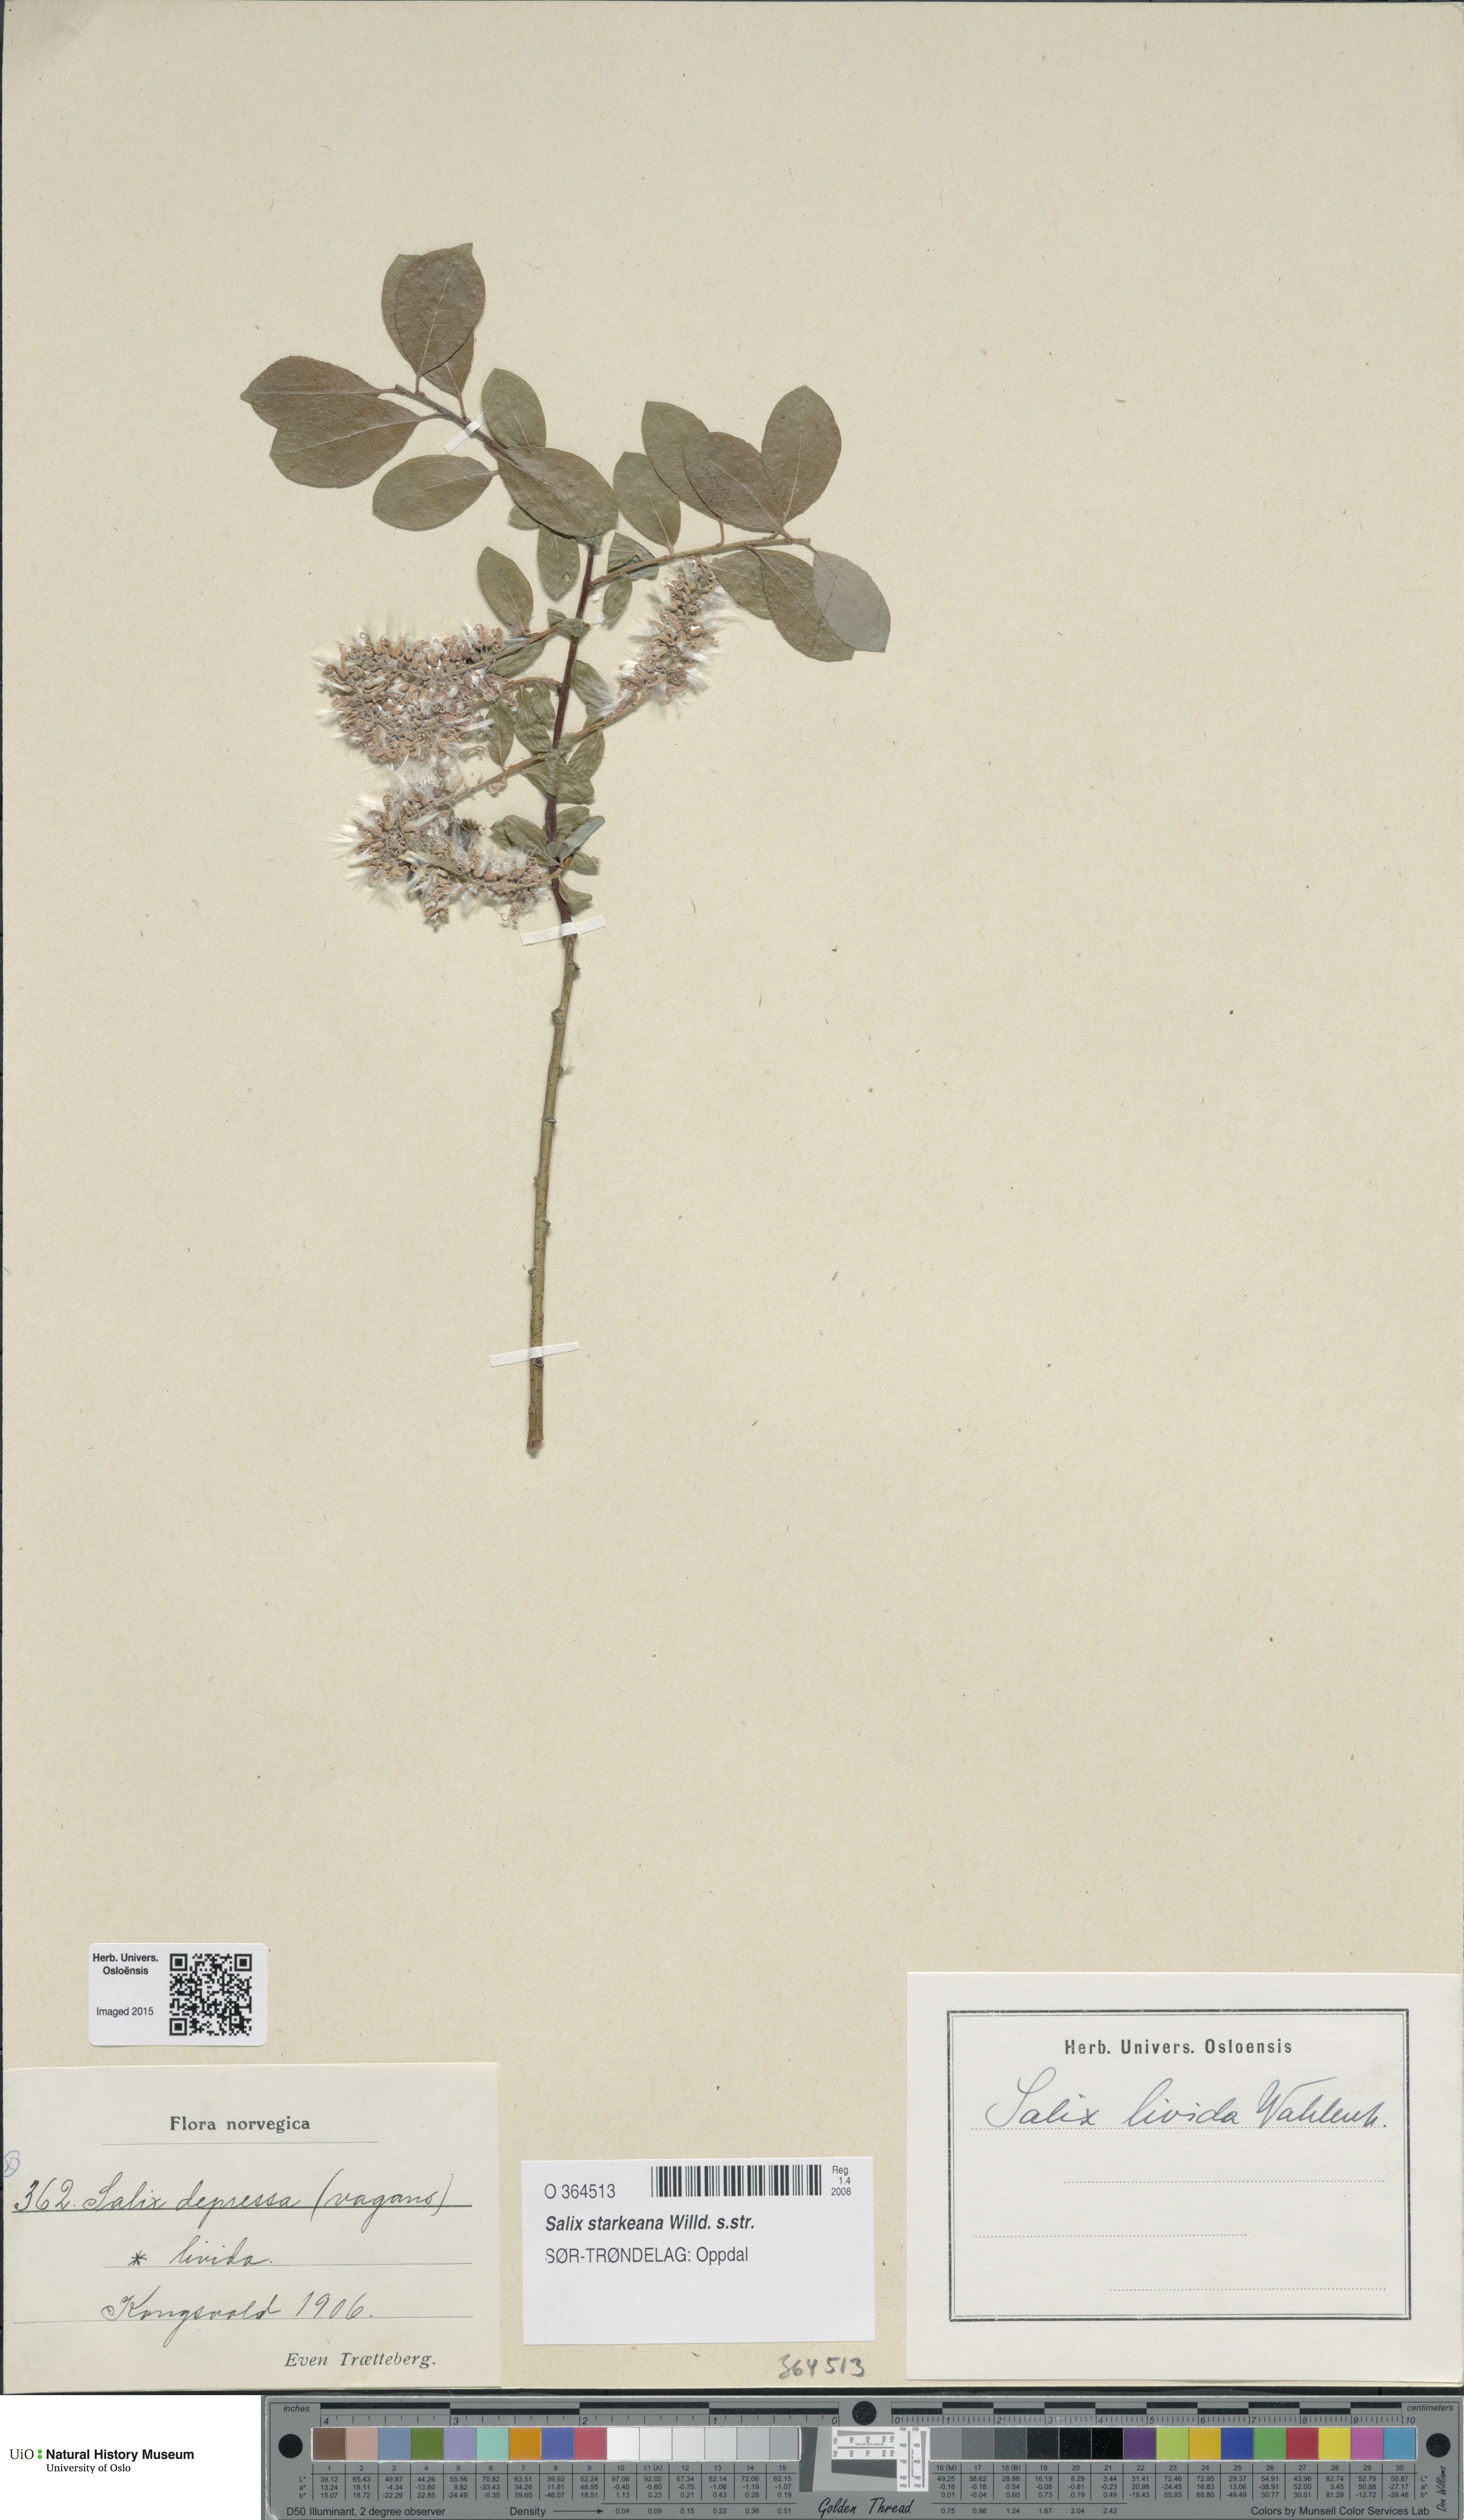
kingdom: Plantae
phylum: Tracheophyta
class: Magnoliopsida
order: Malpighiales
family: Salicaceae
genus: Salix
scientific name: Salix starkeana
